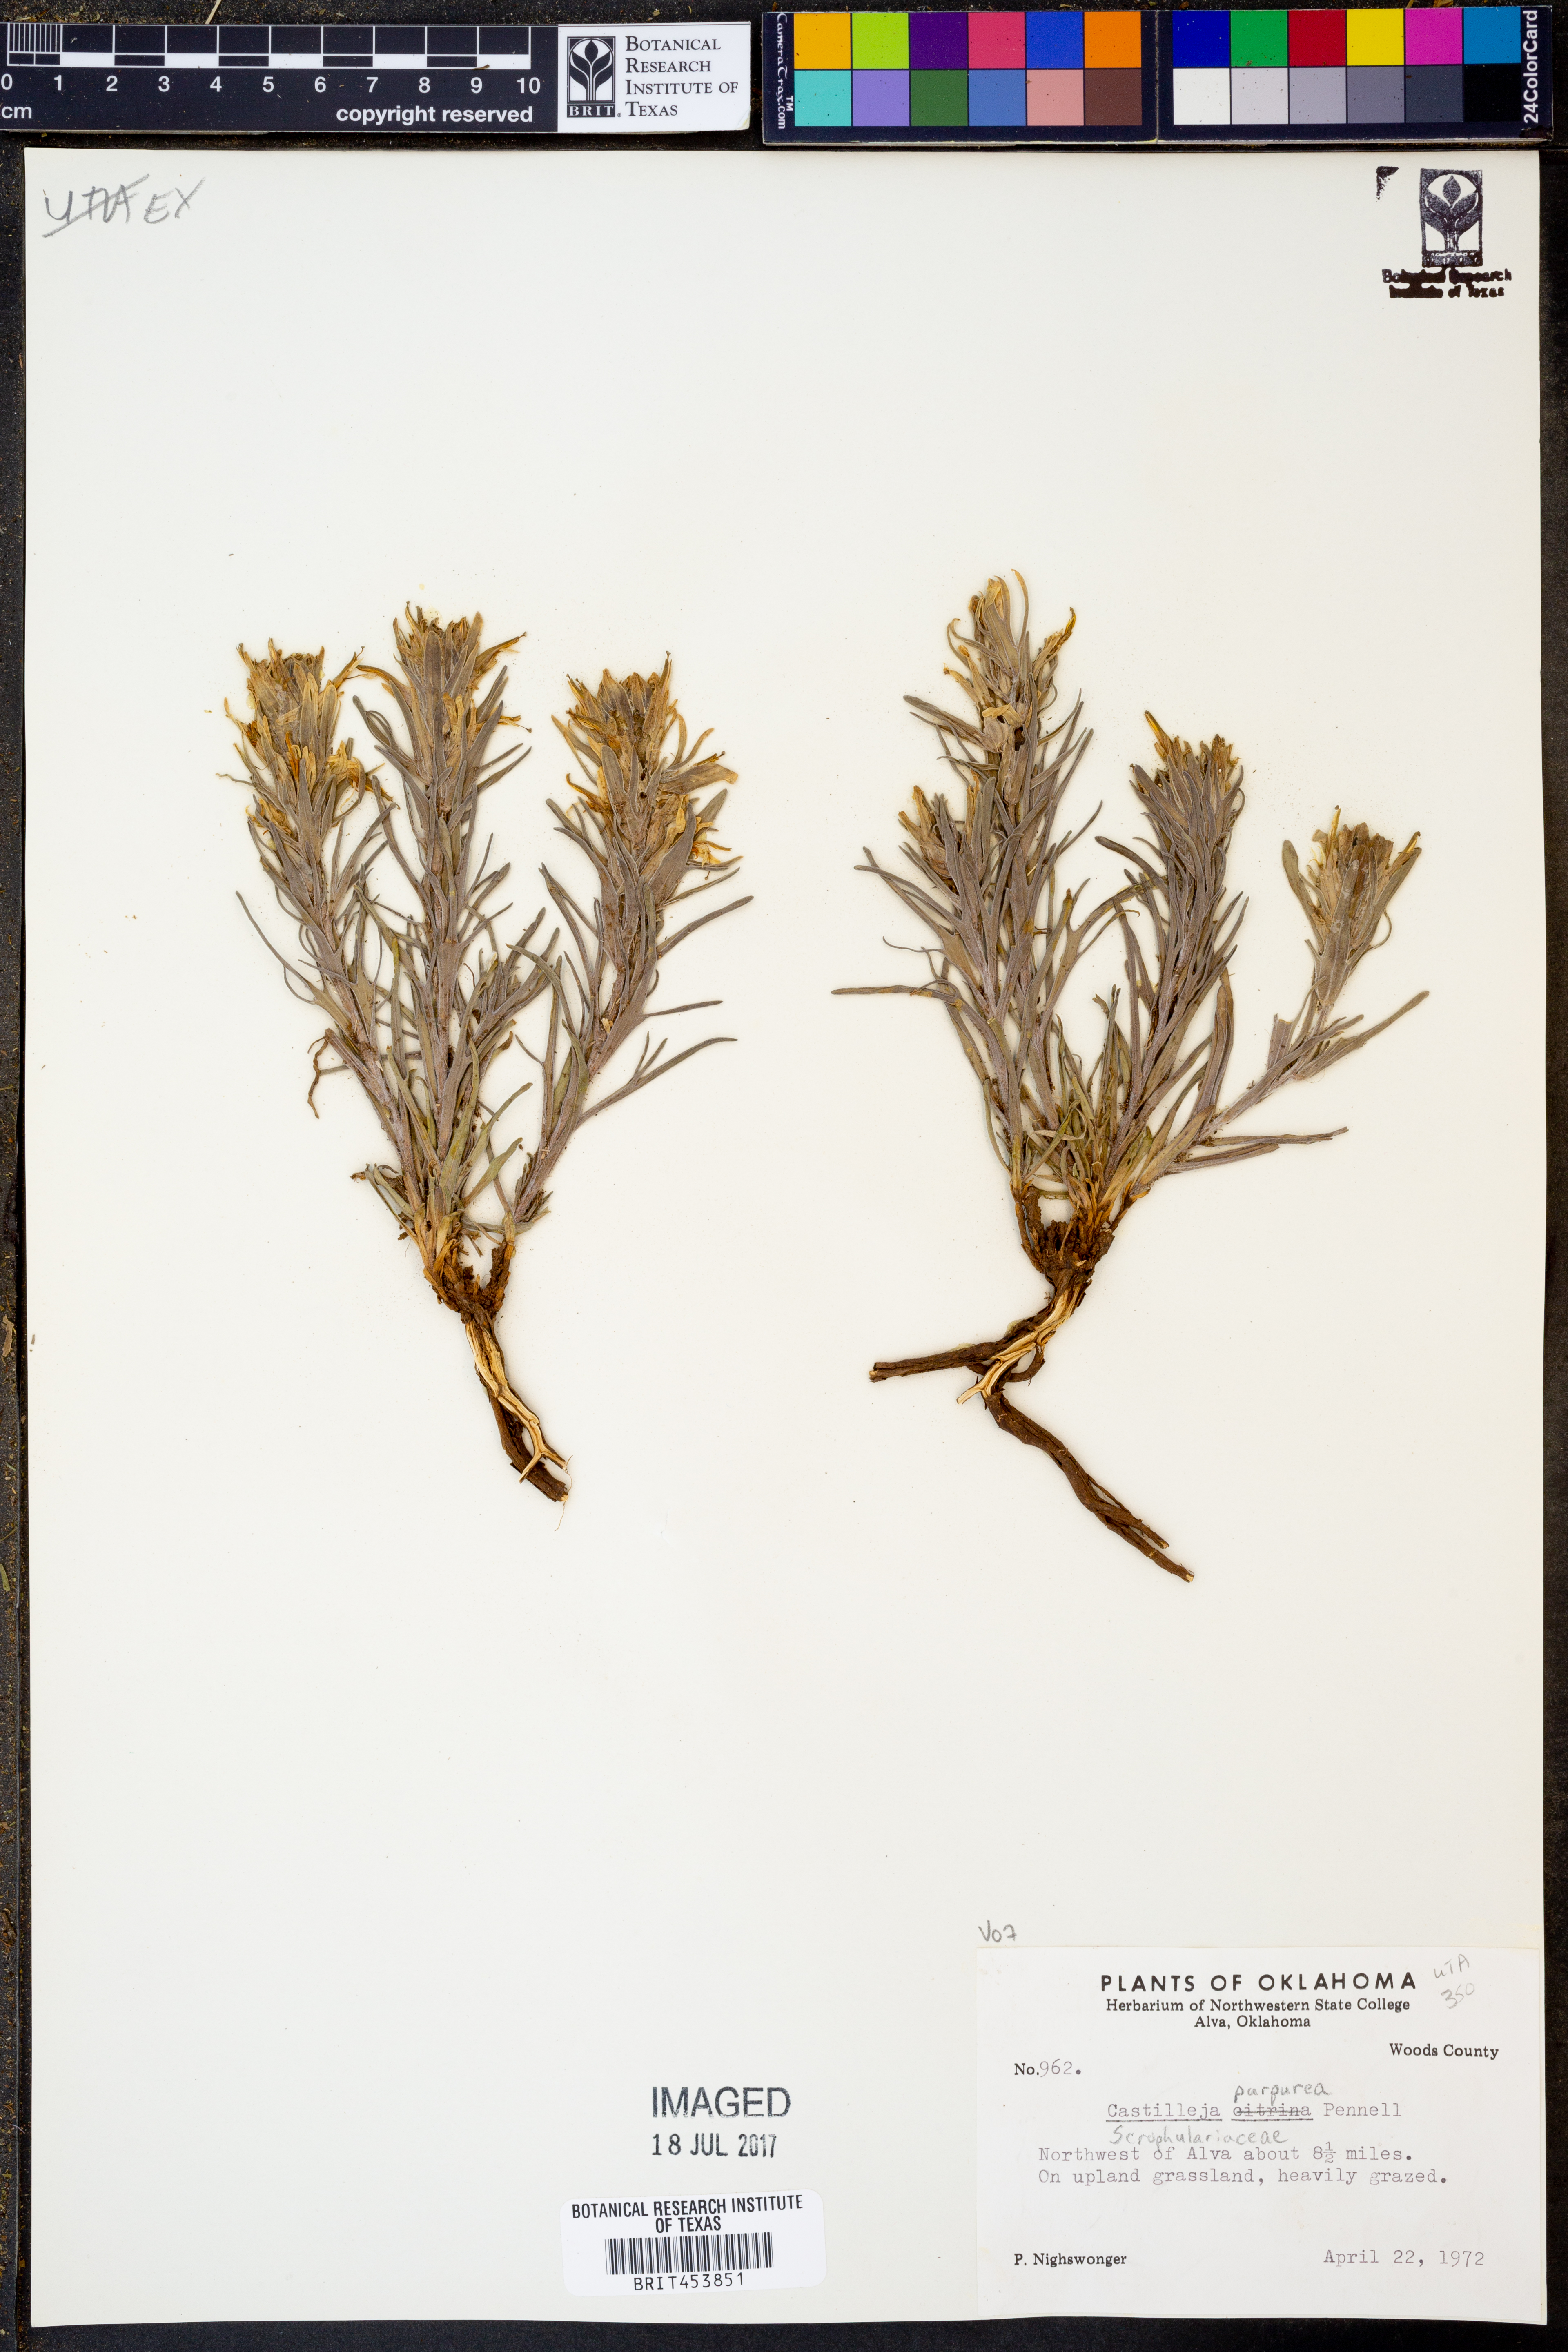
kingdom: Plantae
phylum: Tracheophyta
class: Magnoliopsida
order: Lamiales
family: Orobanchaceae
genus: Castilleja
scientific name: Castilleja purpurea
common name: Plains paintbrush
